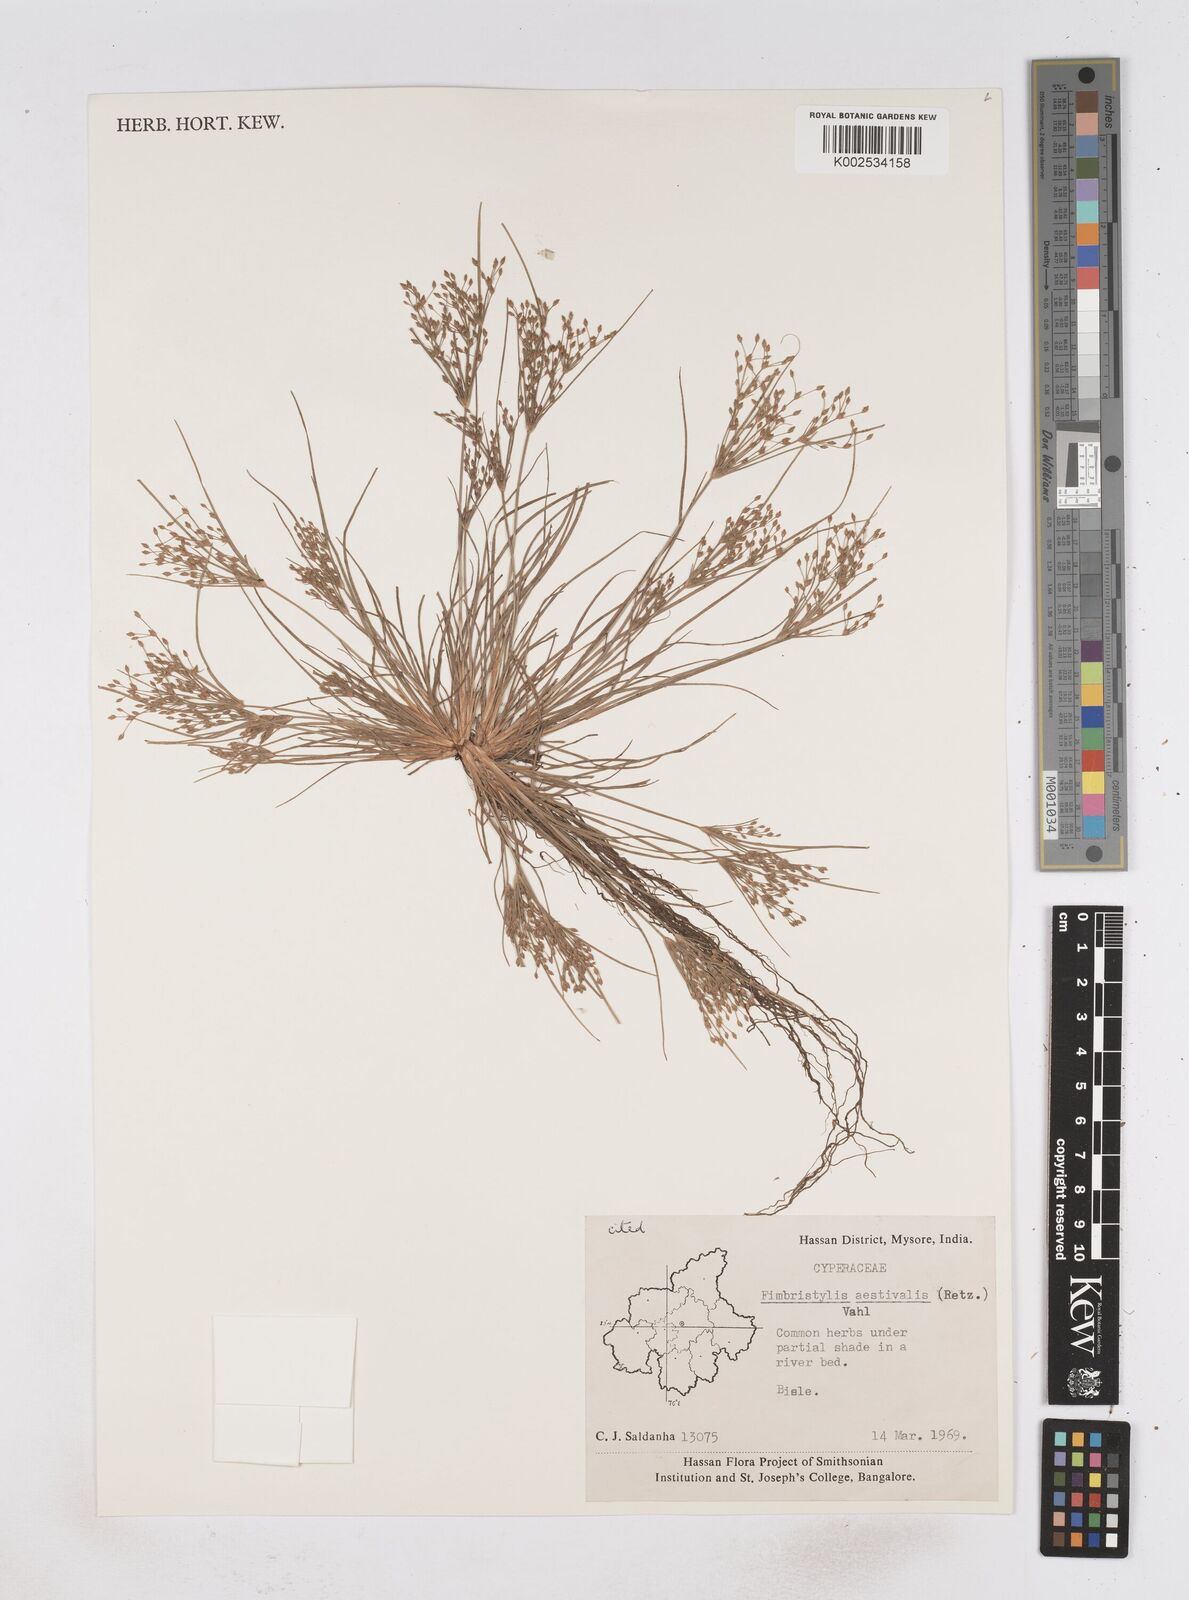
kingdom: Plantae
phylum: Tracheophyta
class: Liliopsida
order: Poales
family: Cyperaceae
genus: Fimbristylis
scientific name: Fimbristylis aestivalis
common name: Summer fimbry
